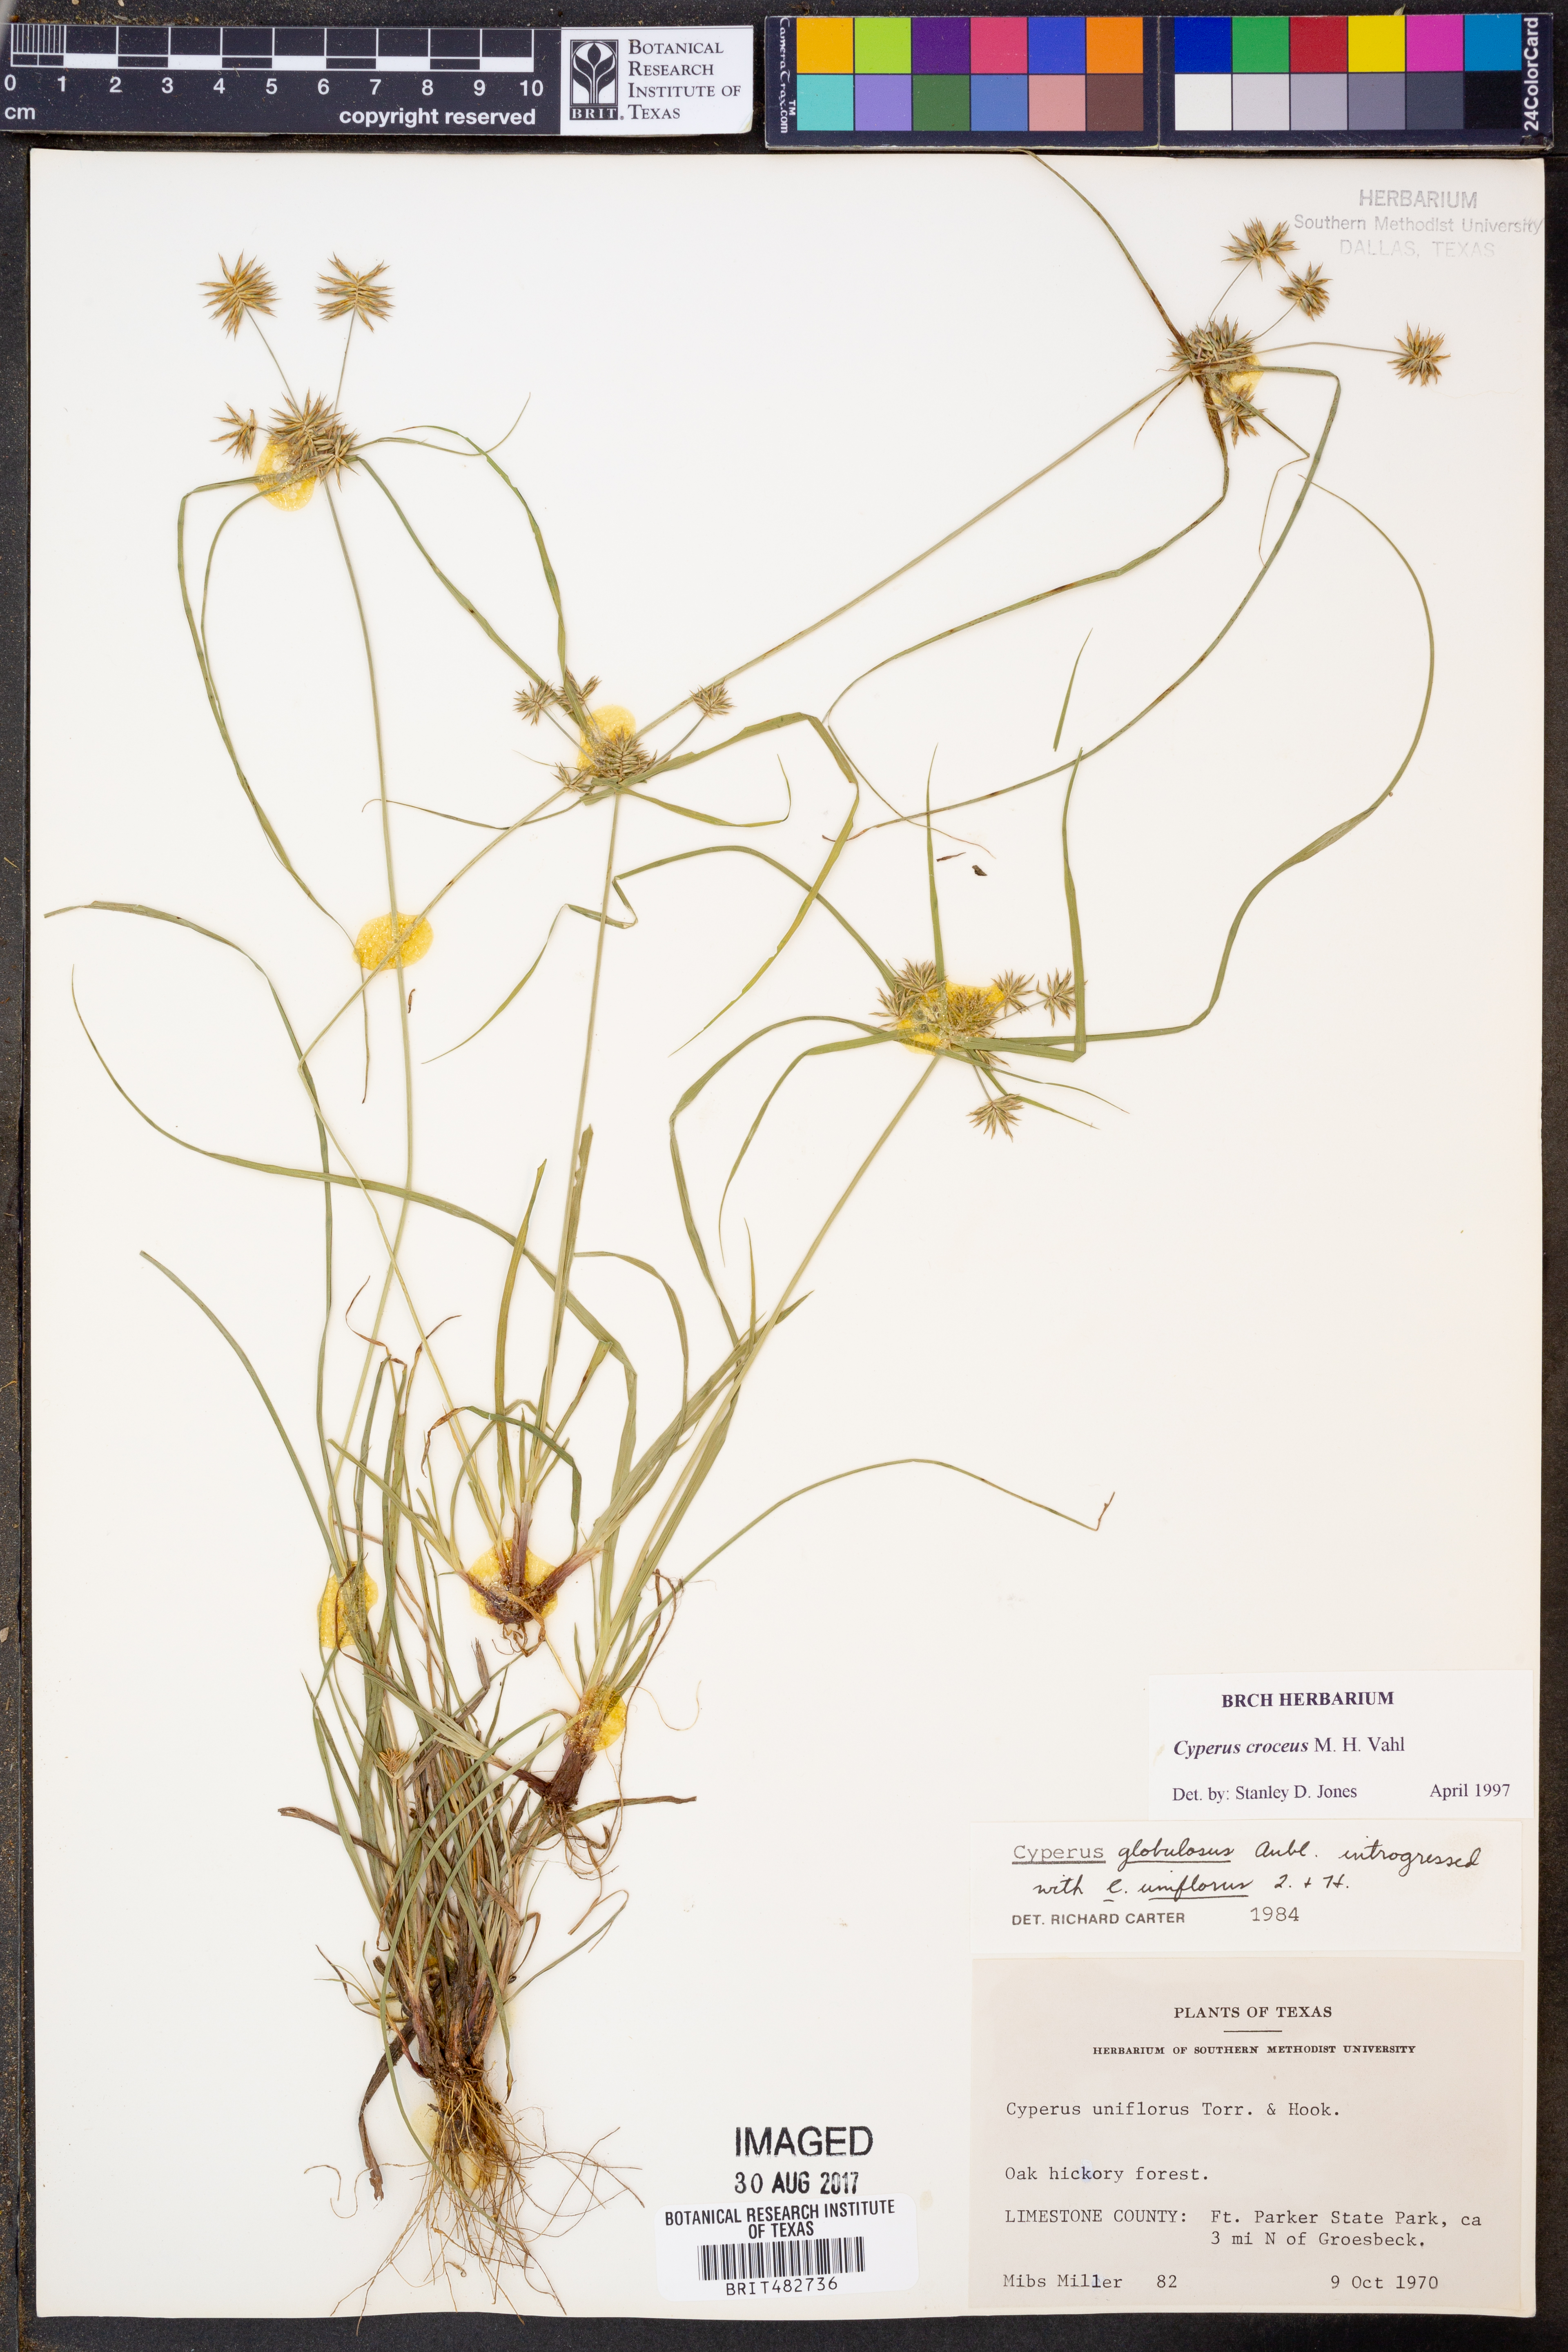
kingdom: Plantae
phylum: Tracheophyta
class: Liliopsida
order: Poales
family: Cyperaceae
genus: Cyperus
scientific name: Cyperus croceus
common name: Baldwin's flatsedge
